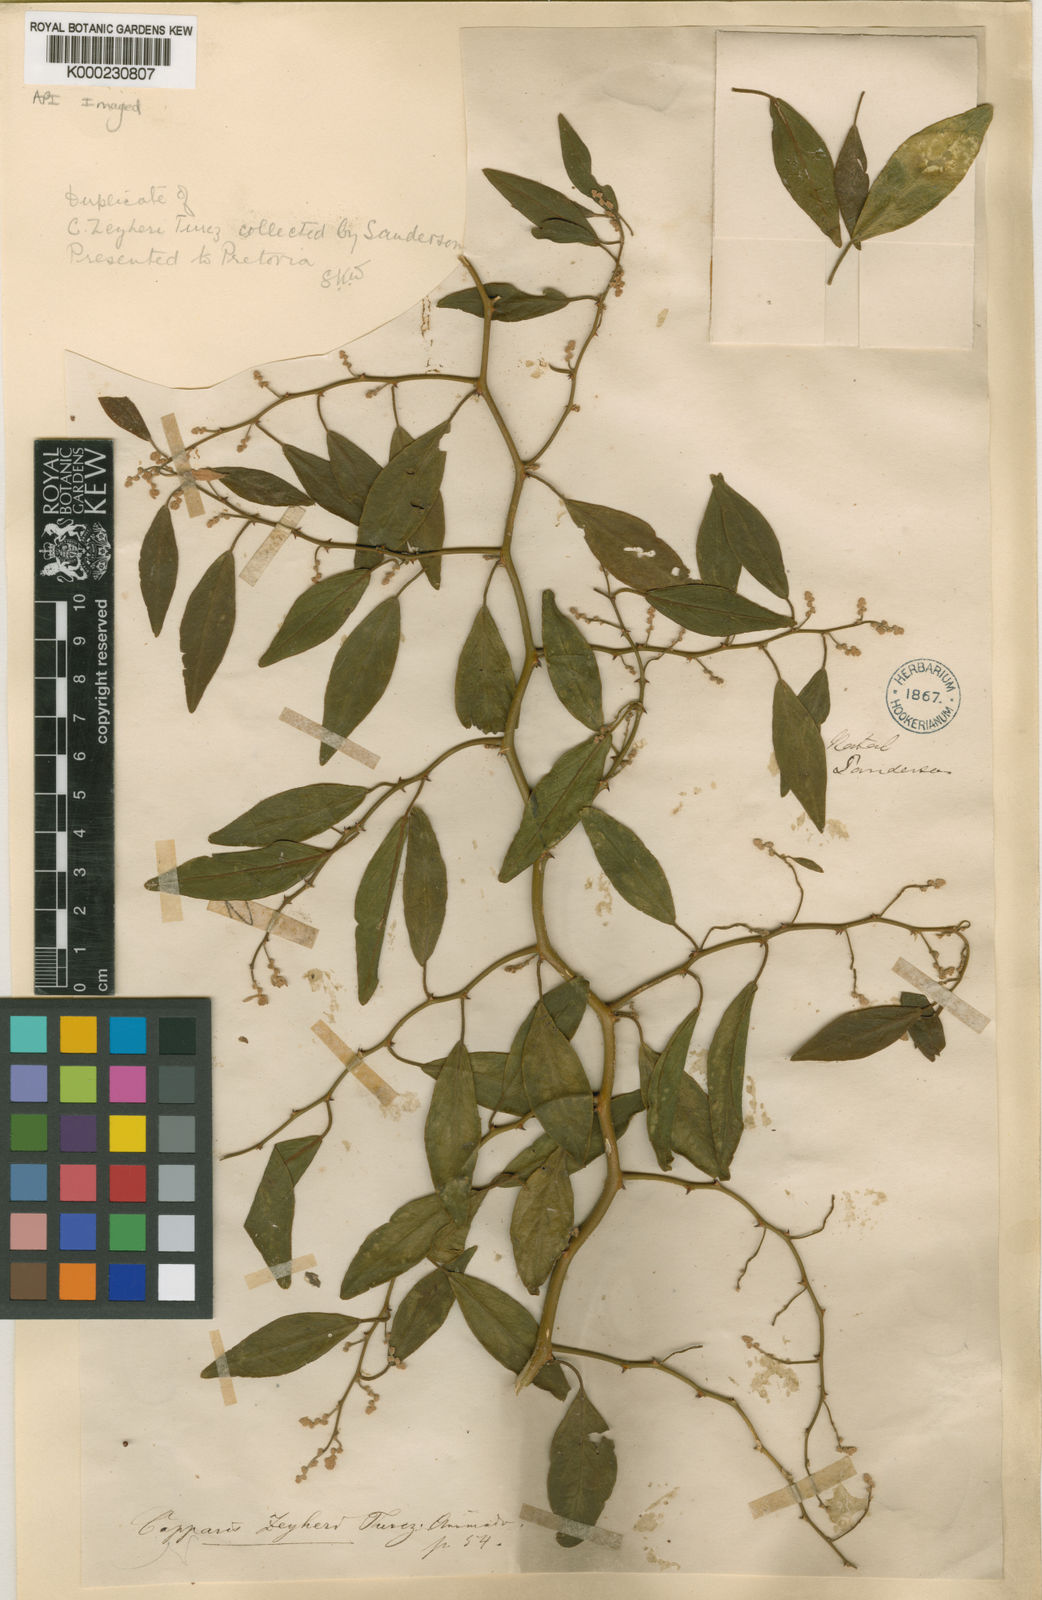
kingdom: Plantae
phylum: Tracheophyta
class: Magnoliopsida
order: Brassicales
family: Capparaceae
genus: Capparis
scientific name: Capparis fascicularis
